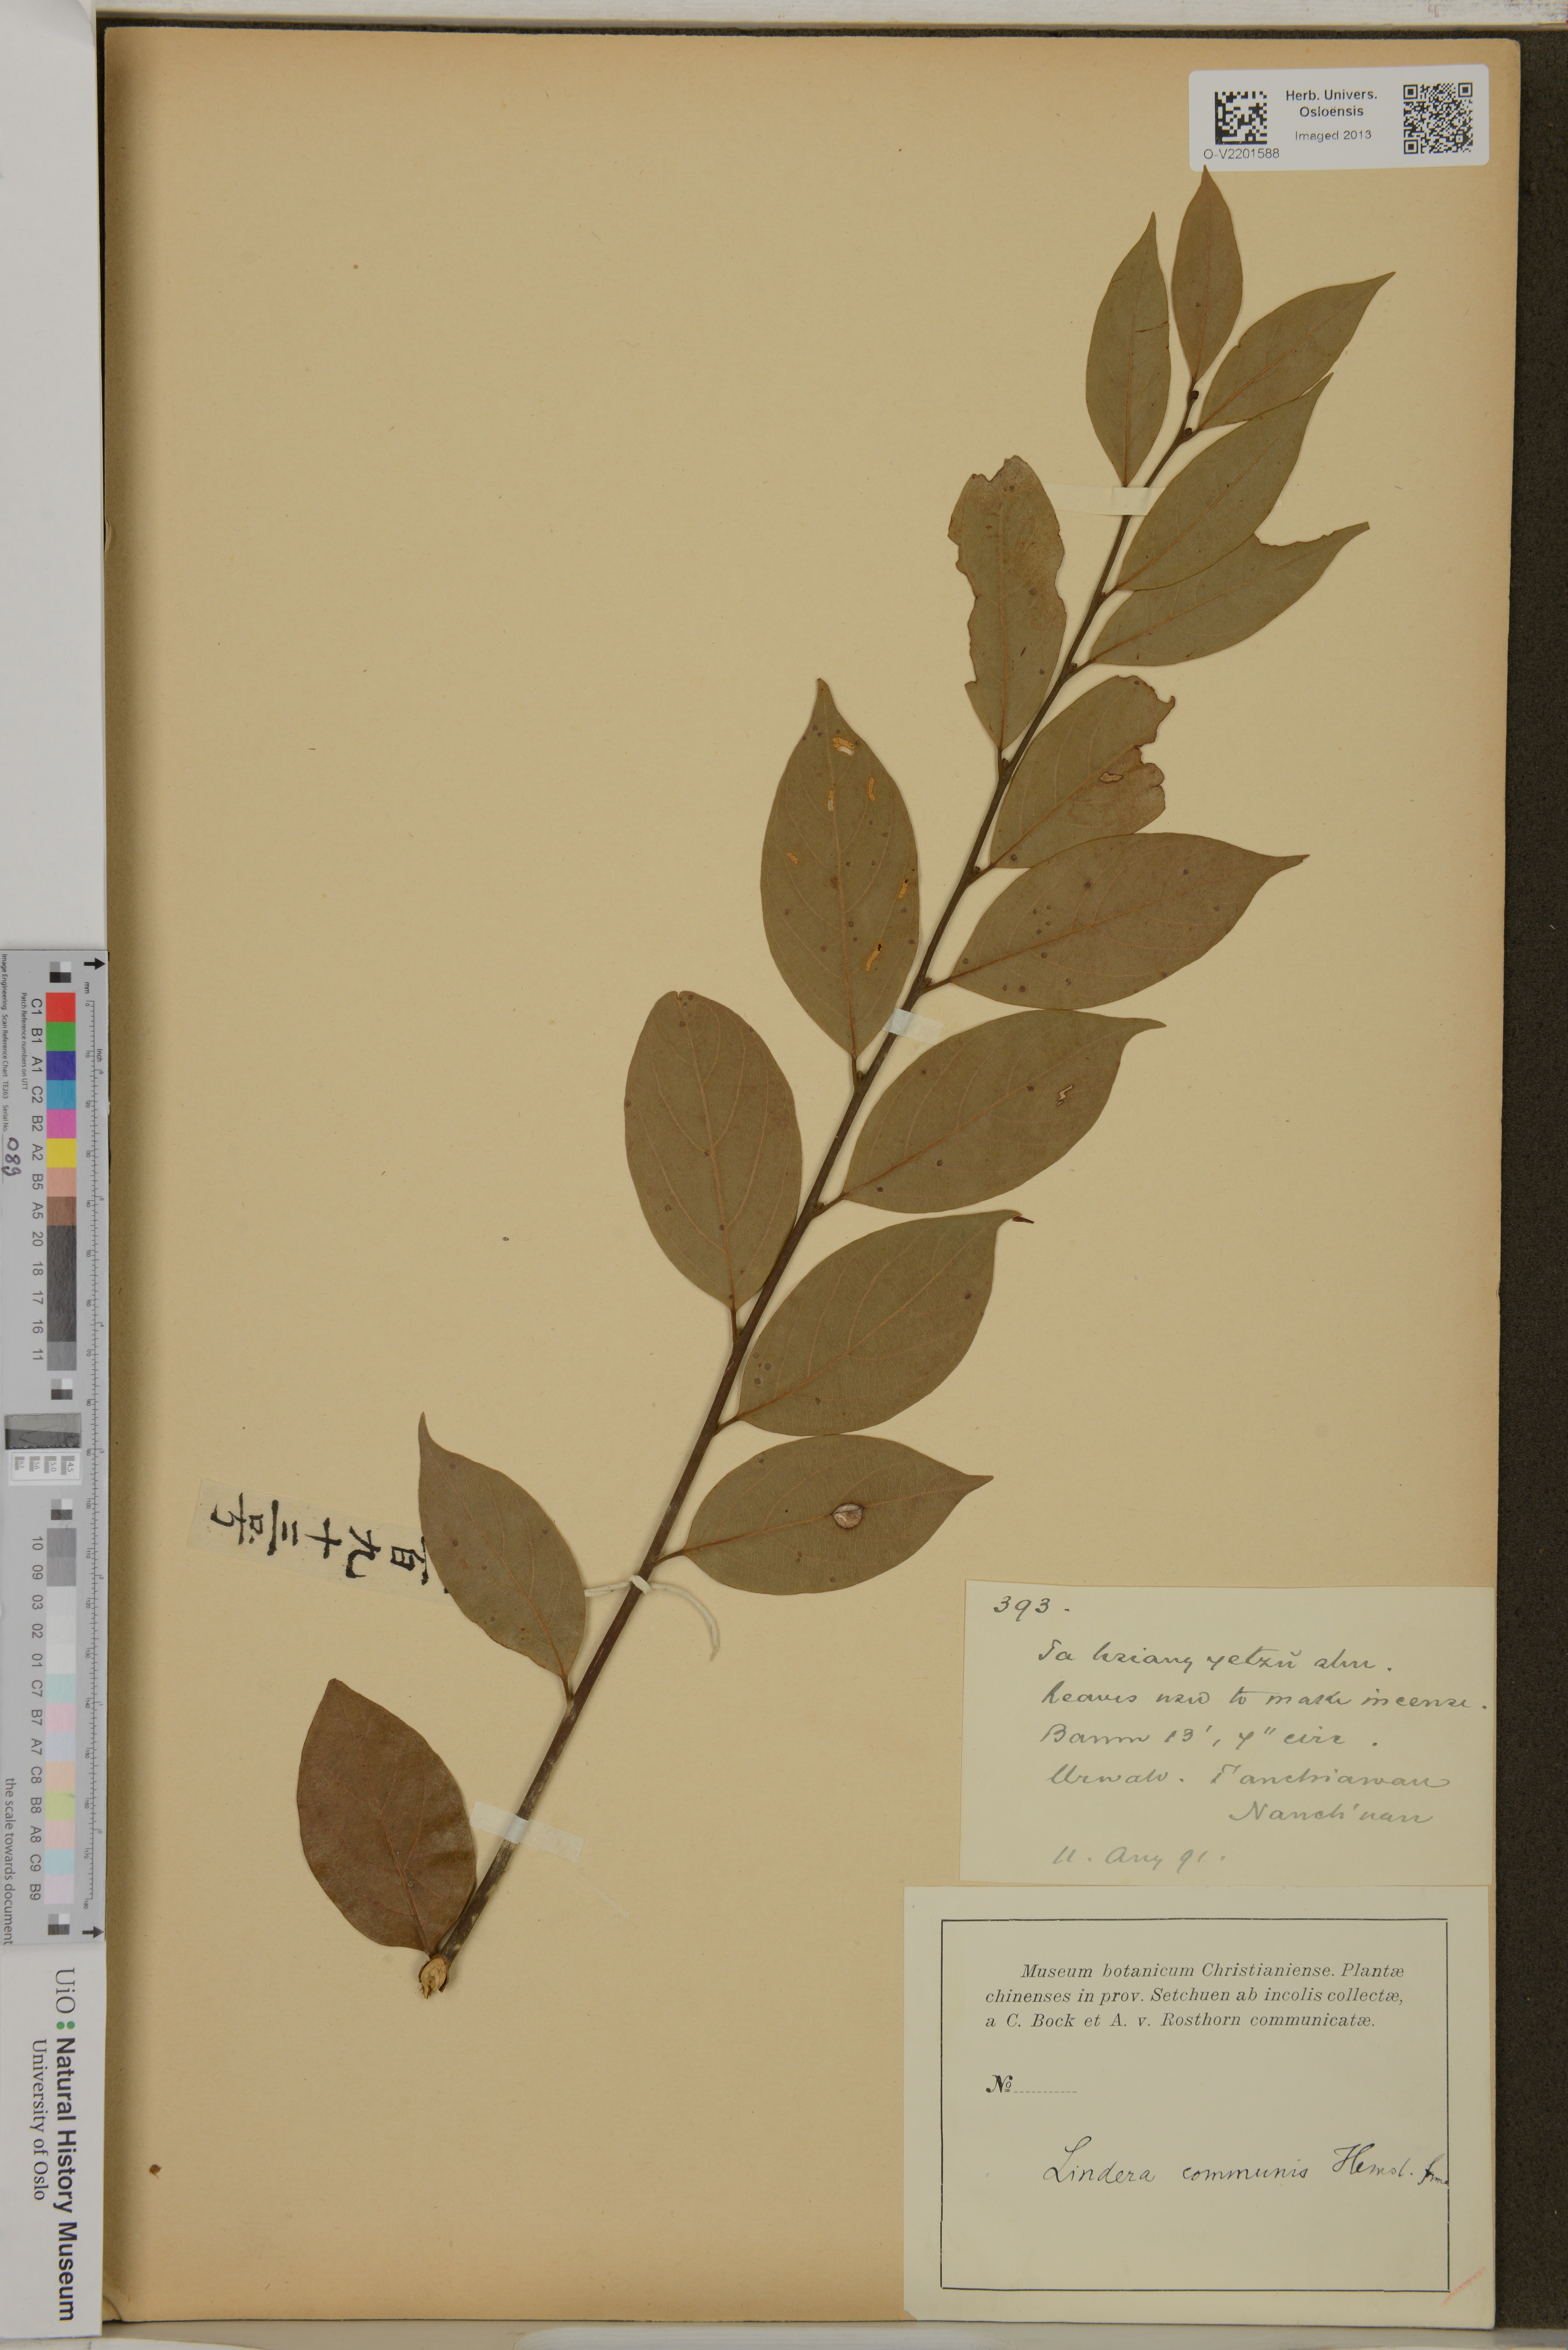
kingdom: Plantae
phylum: Tracheophyta
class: Magnoliopsida
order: Laurales
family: Lauraceae
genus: Lindera
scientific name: Lindera communis
